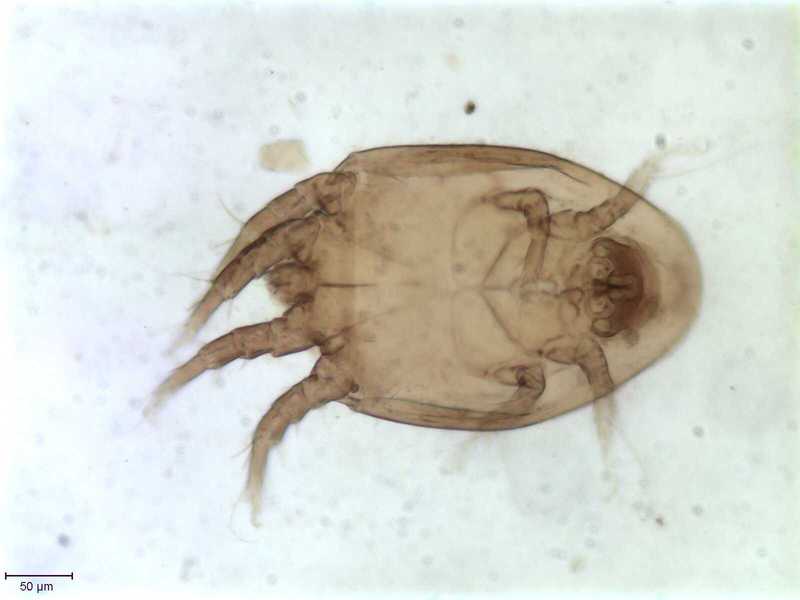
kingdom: Animalia
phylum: Arthropoda
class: Arachnida
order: Sarcoptiformes
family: Algophagidae
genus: Hericia
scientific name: Hericia fermentationis
